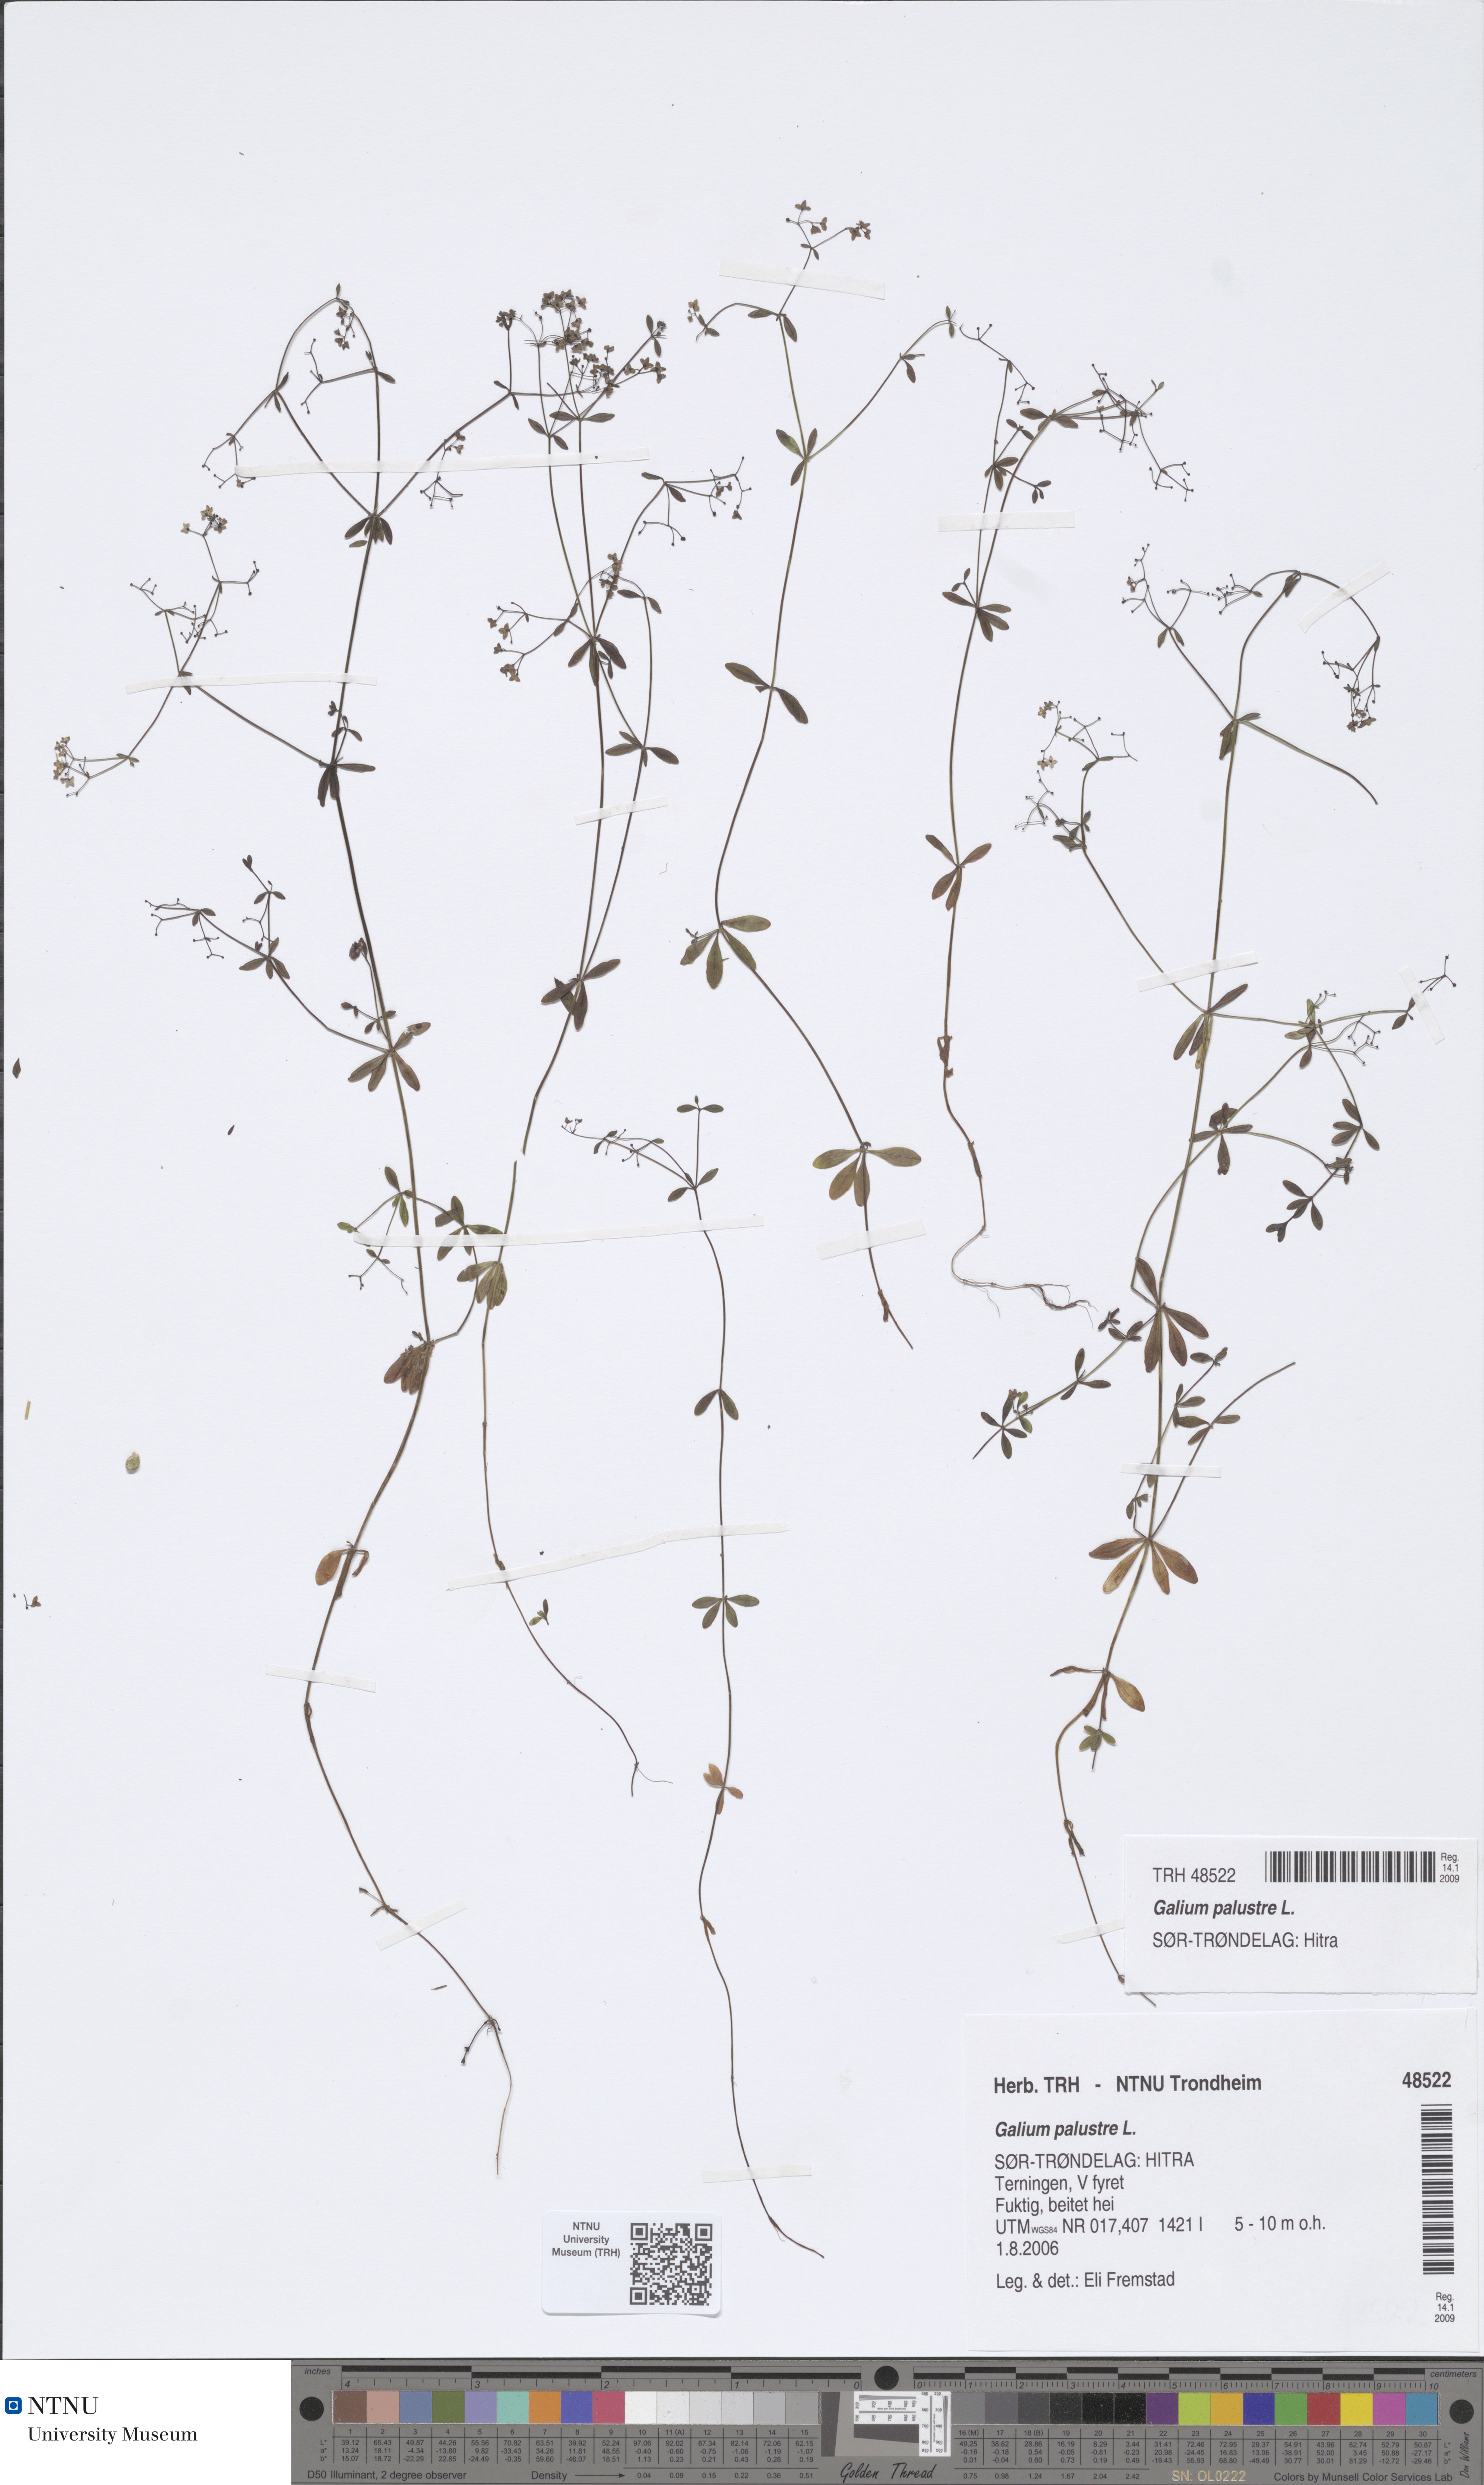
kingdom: Plantae
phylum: Tracheophyta
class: Magnoliopsida
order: Gentianales
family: Rubiaceae
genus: Galium
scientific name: Galium palustre
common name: Common marsh-bedstraw
